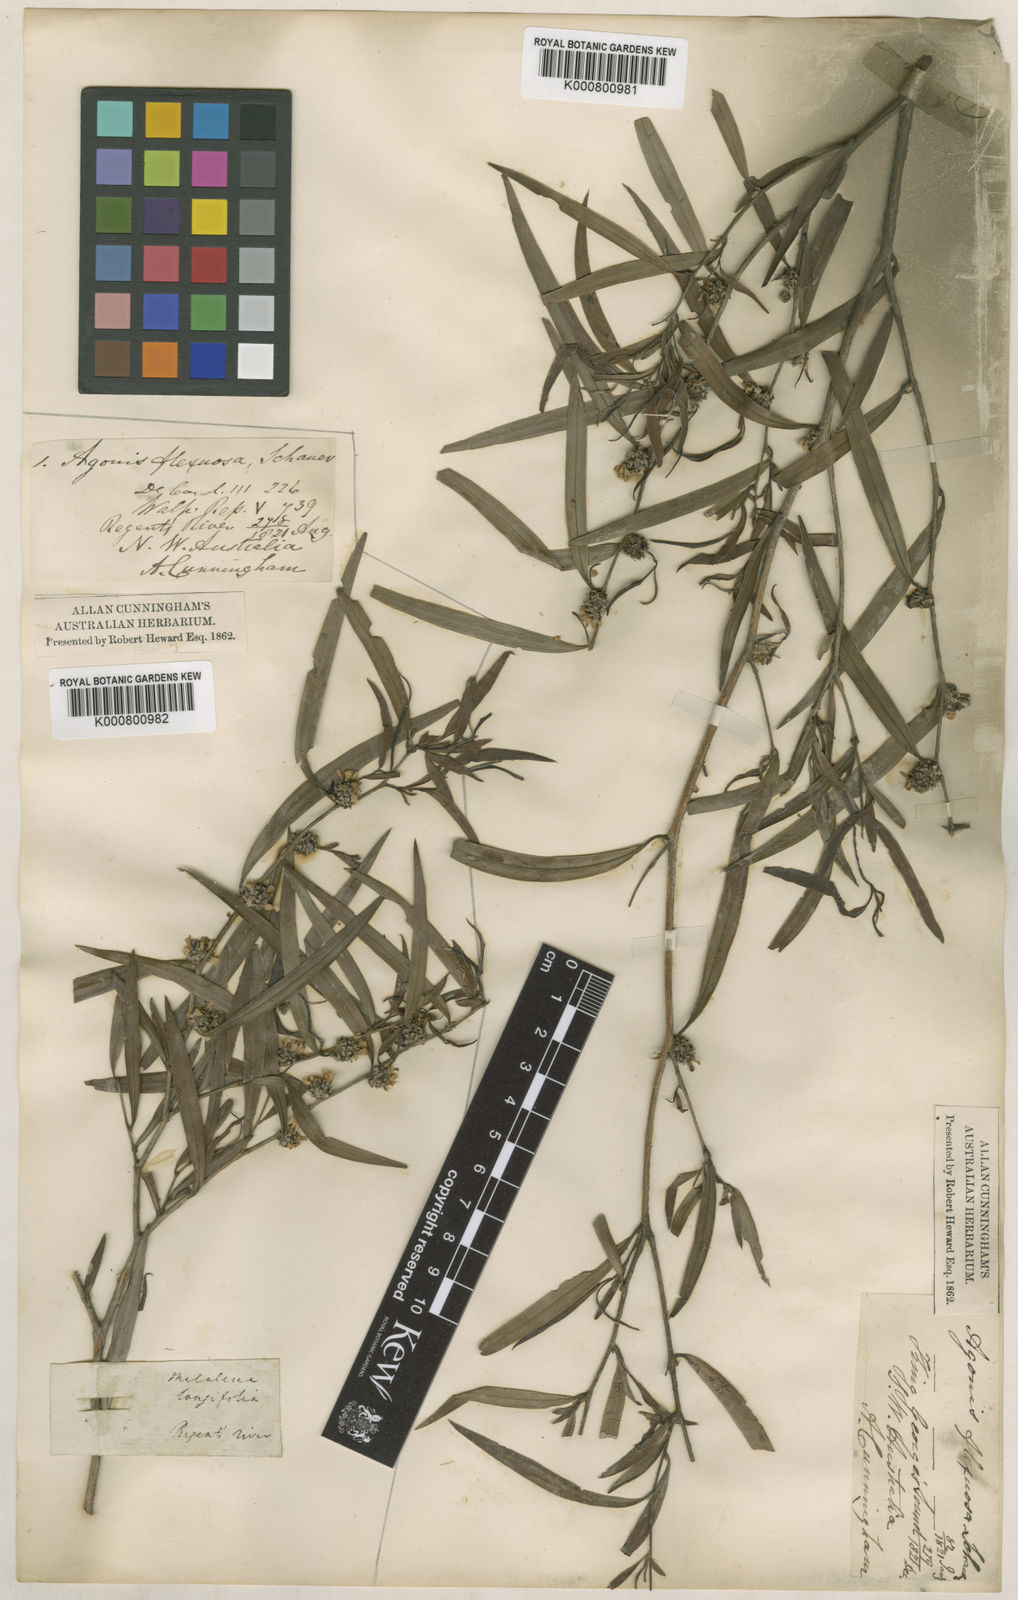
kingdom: Plantae
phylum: Tracheophyta
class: Magnoliopsida
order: Myrtales
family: Myrtaceae
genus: Agonis
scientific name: Agonis
